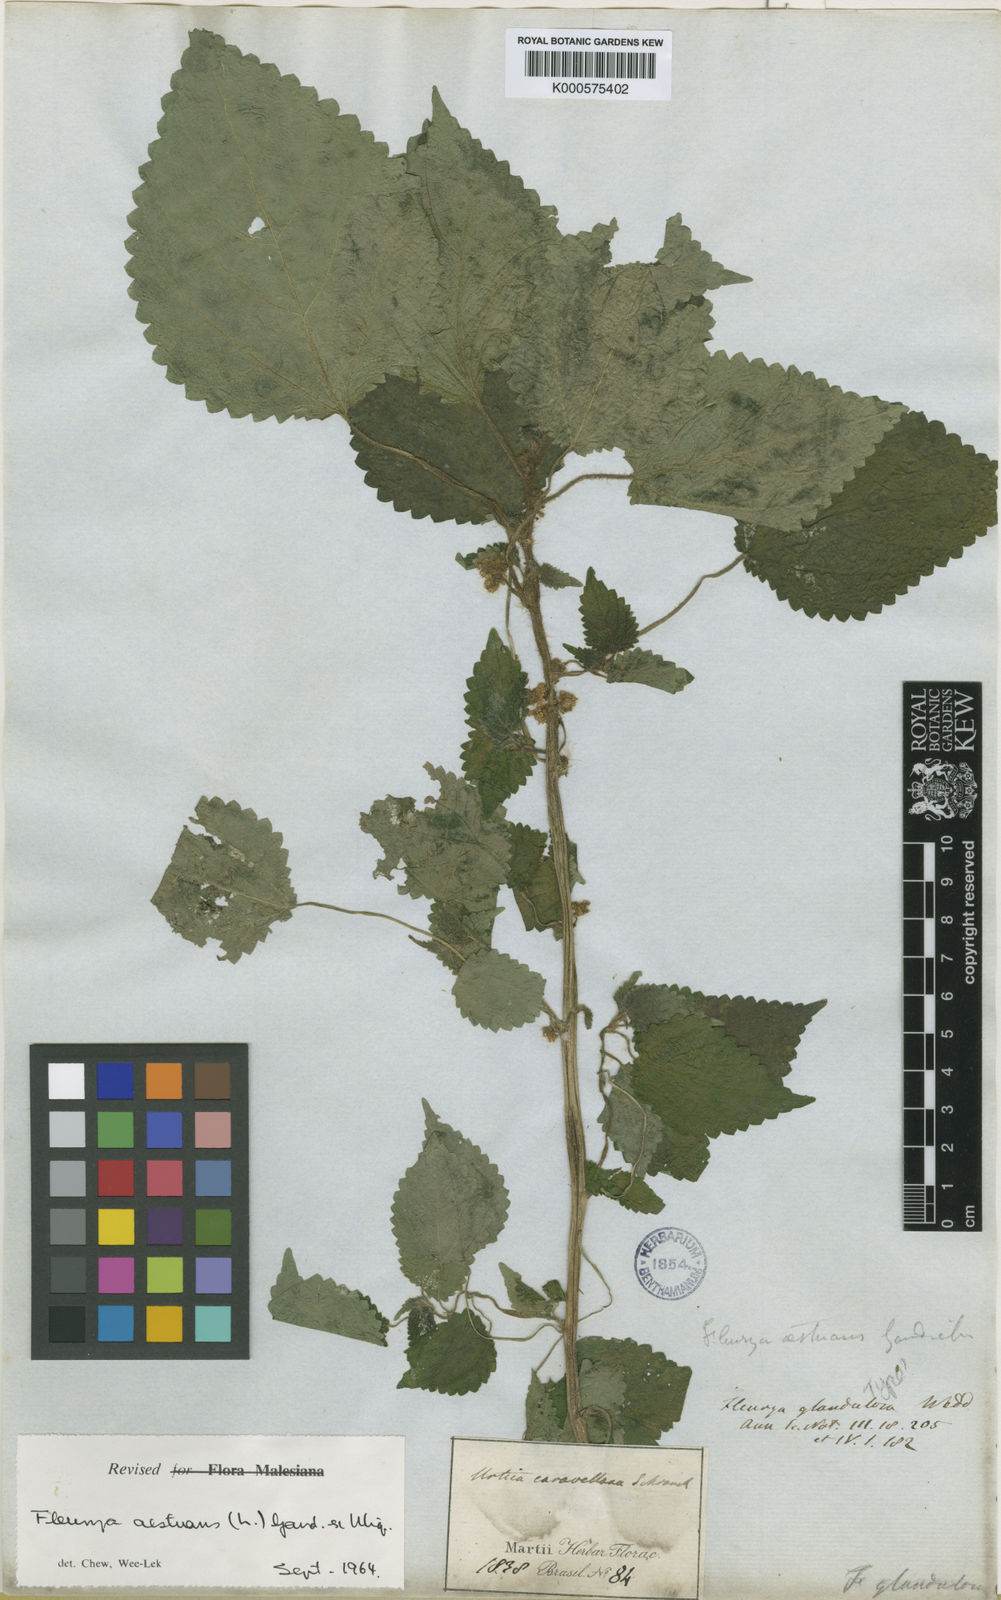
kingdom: Plantae
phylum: Tracheophyta
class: Magnoliopsida
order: Rosales
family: Urticaceae
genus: Laportea
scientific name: Laportea aestuans
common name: West indian woodnettle
